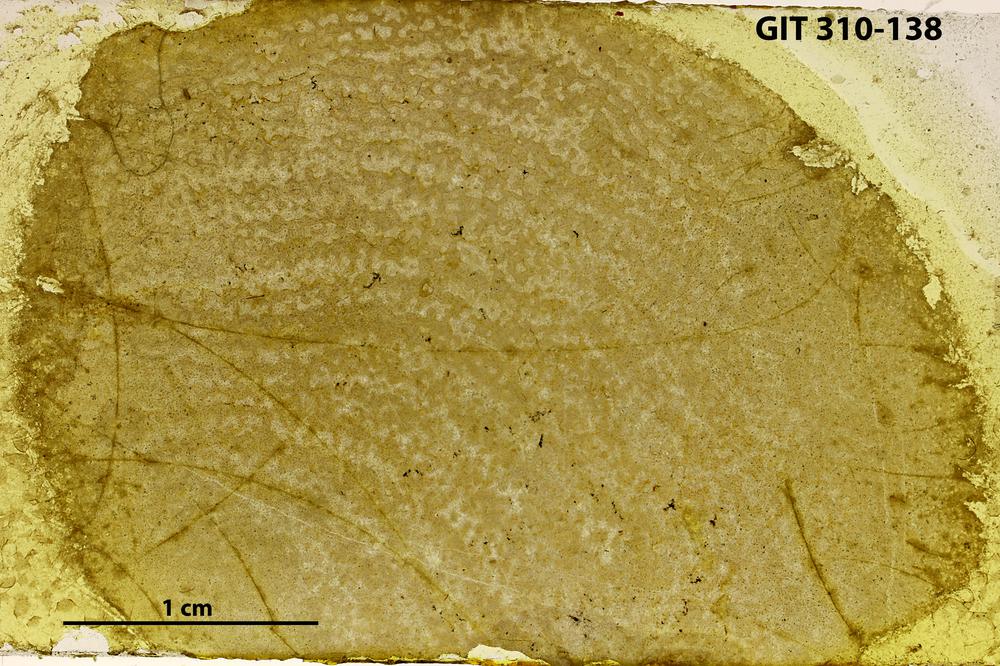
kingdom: Animalia
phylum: Porifera
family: Actinodictyidae
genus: Camptodictyon
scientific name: Camptodictyon
